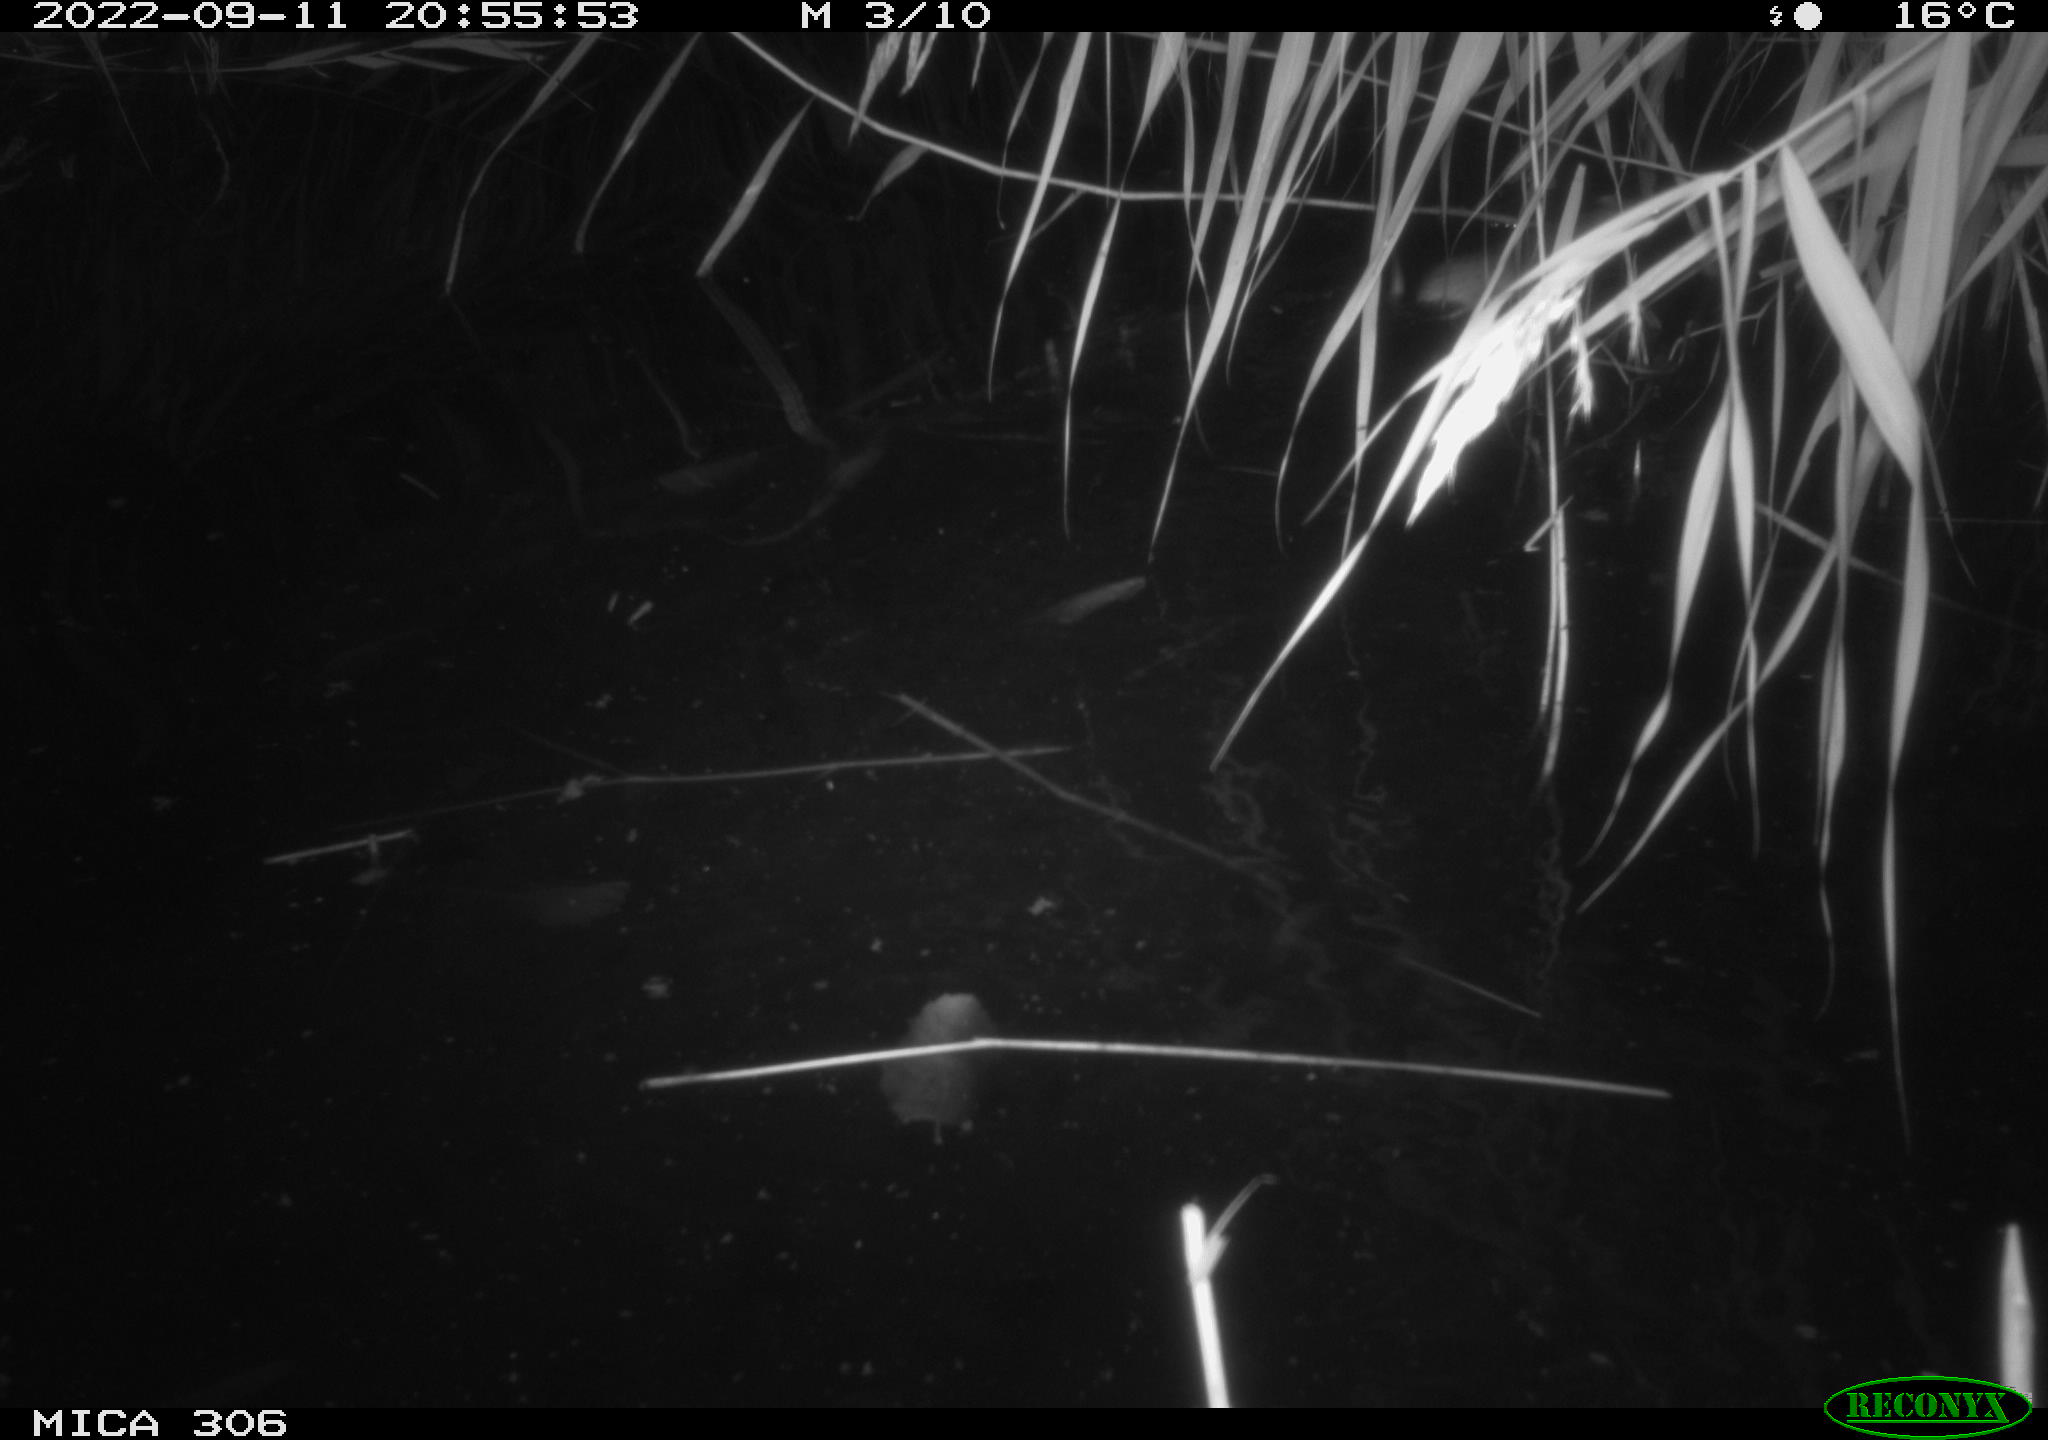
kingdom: Animalia
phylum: Chordata
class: Mammalia
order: Rodentia
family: Muridae
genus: Rattus
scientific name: Rattus norvegicus
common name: Brown rat
